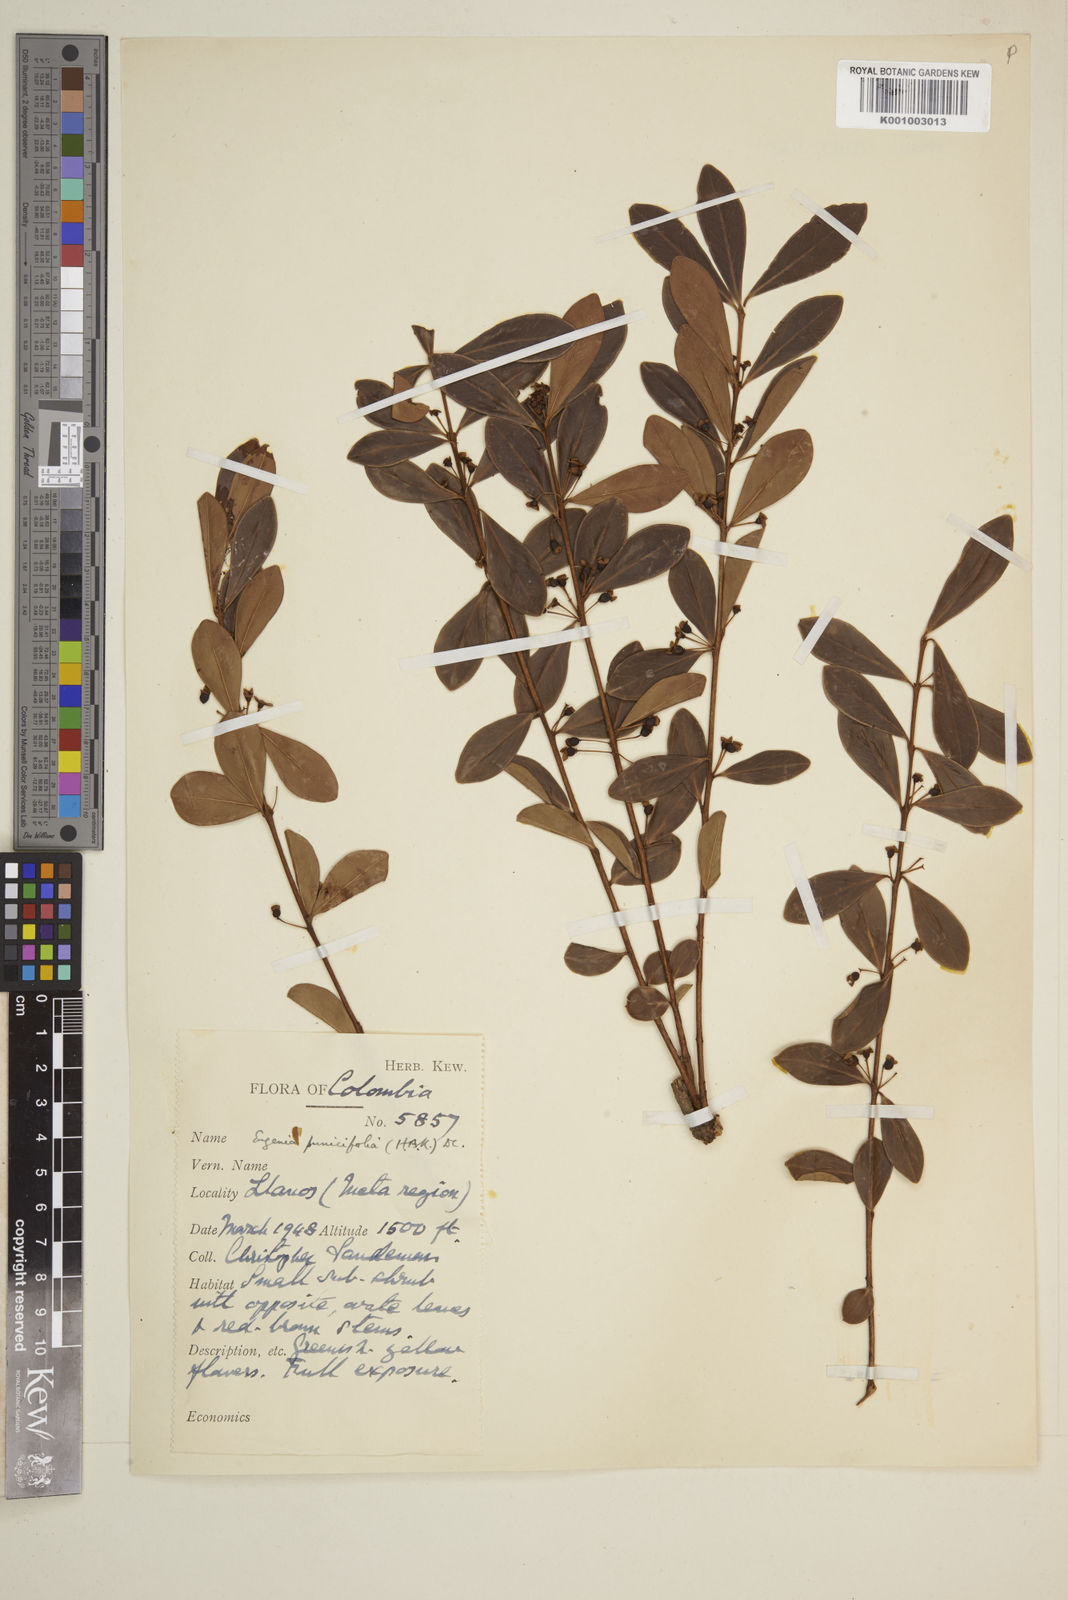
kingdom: Plantae
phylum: Tracheophyta
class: Magnoliopsida
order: Myrtales
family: Myrtaceae
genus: Eugenia
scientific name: Eugenia punicifolia
